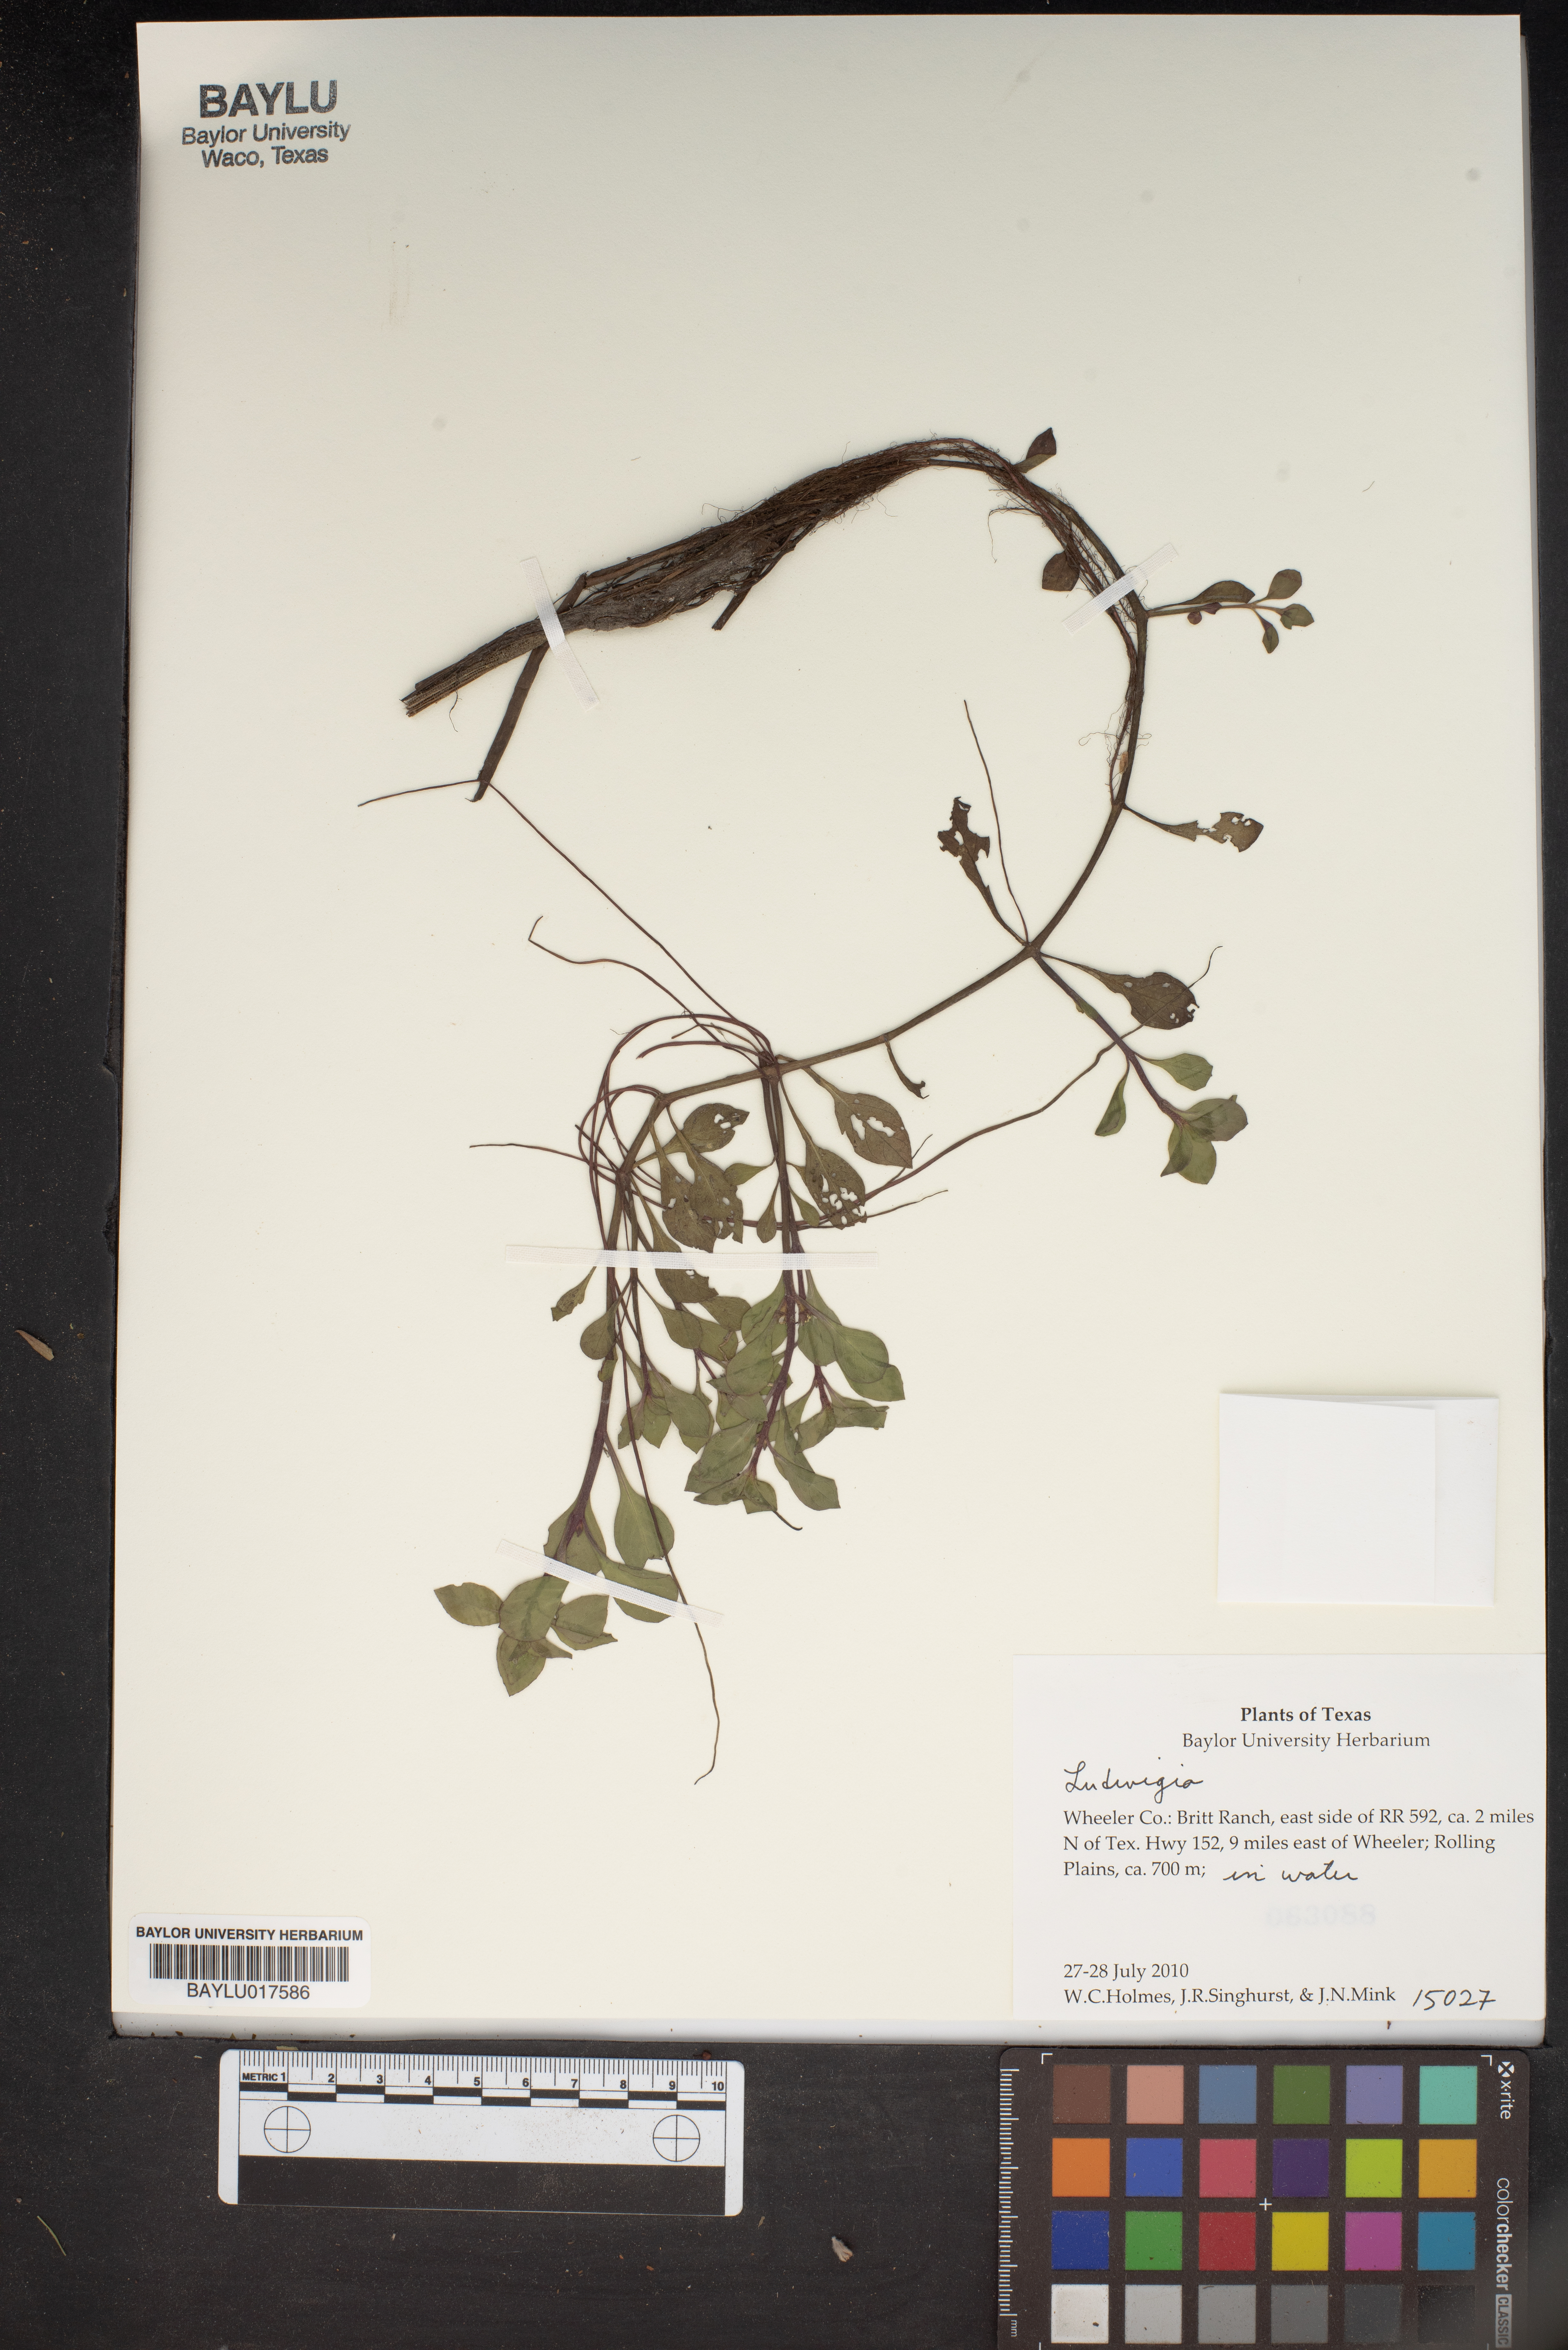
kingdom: Plantae
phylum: Tracheophyta
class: Magnoliopsida
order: Myrtales
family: Onagraceae
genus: Ludwigia
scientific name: Ludwigia
